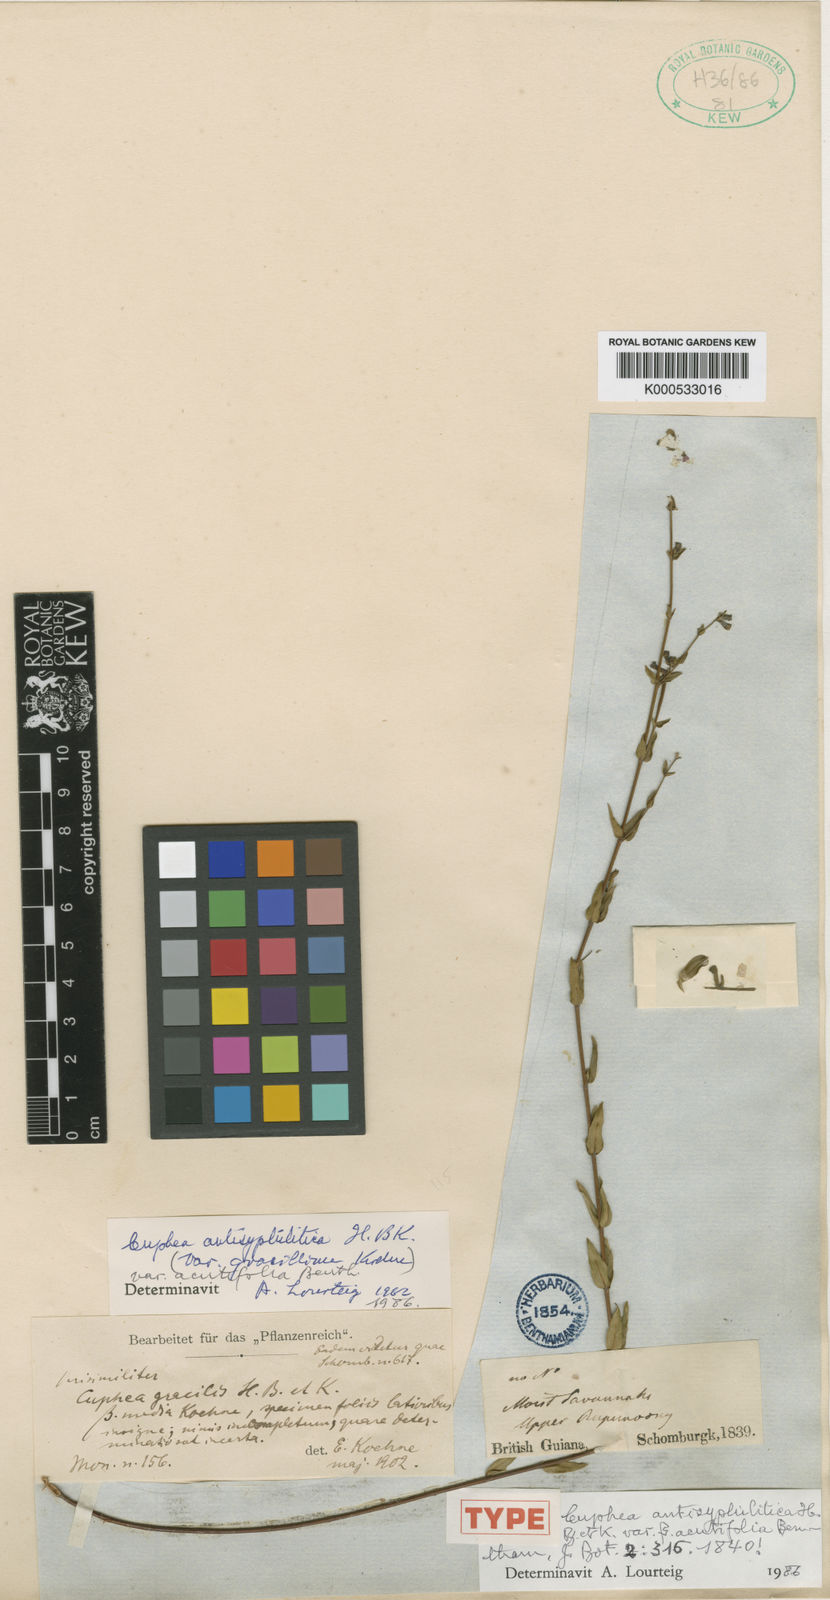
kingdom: Plantae
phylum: Tracheophyta
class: Magnoliopsida
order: Myrtales
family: Lythraceae
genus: Cuphea
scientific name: Cuphea antisyphilitica
